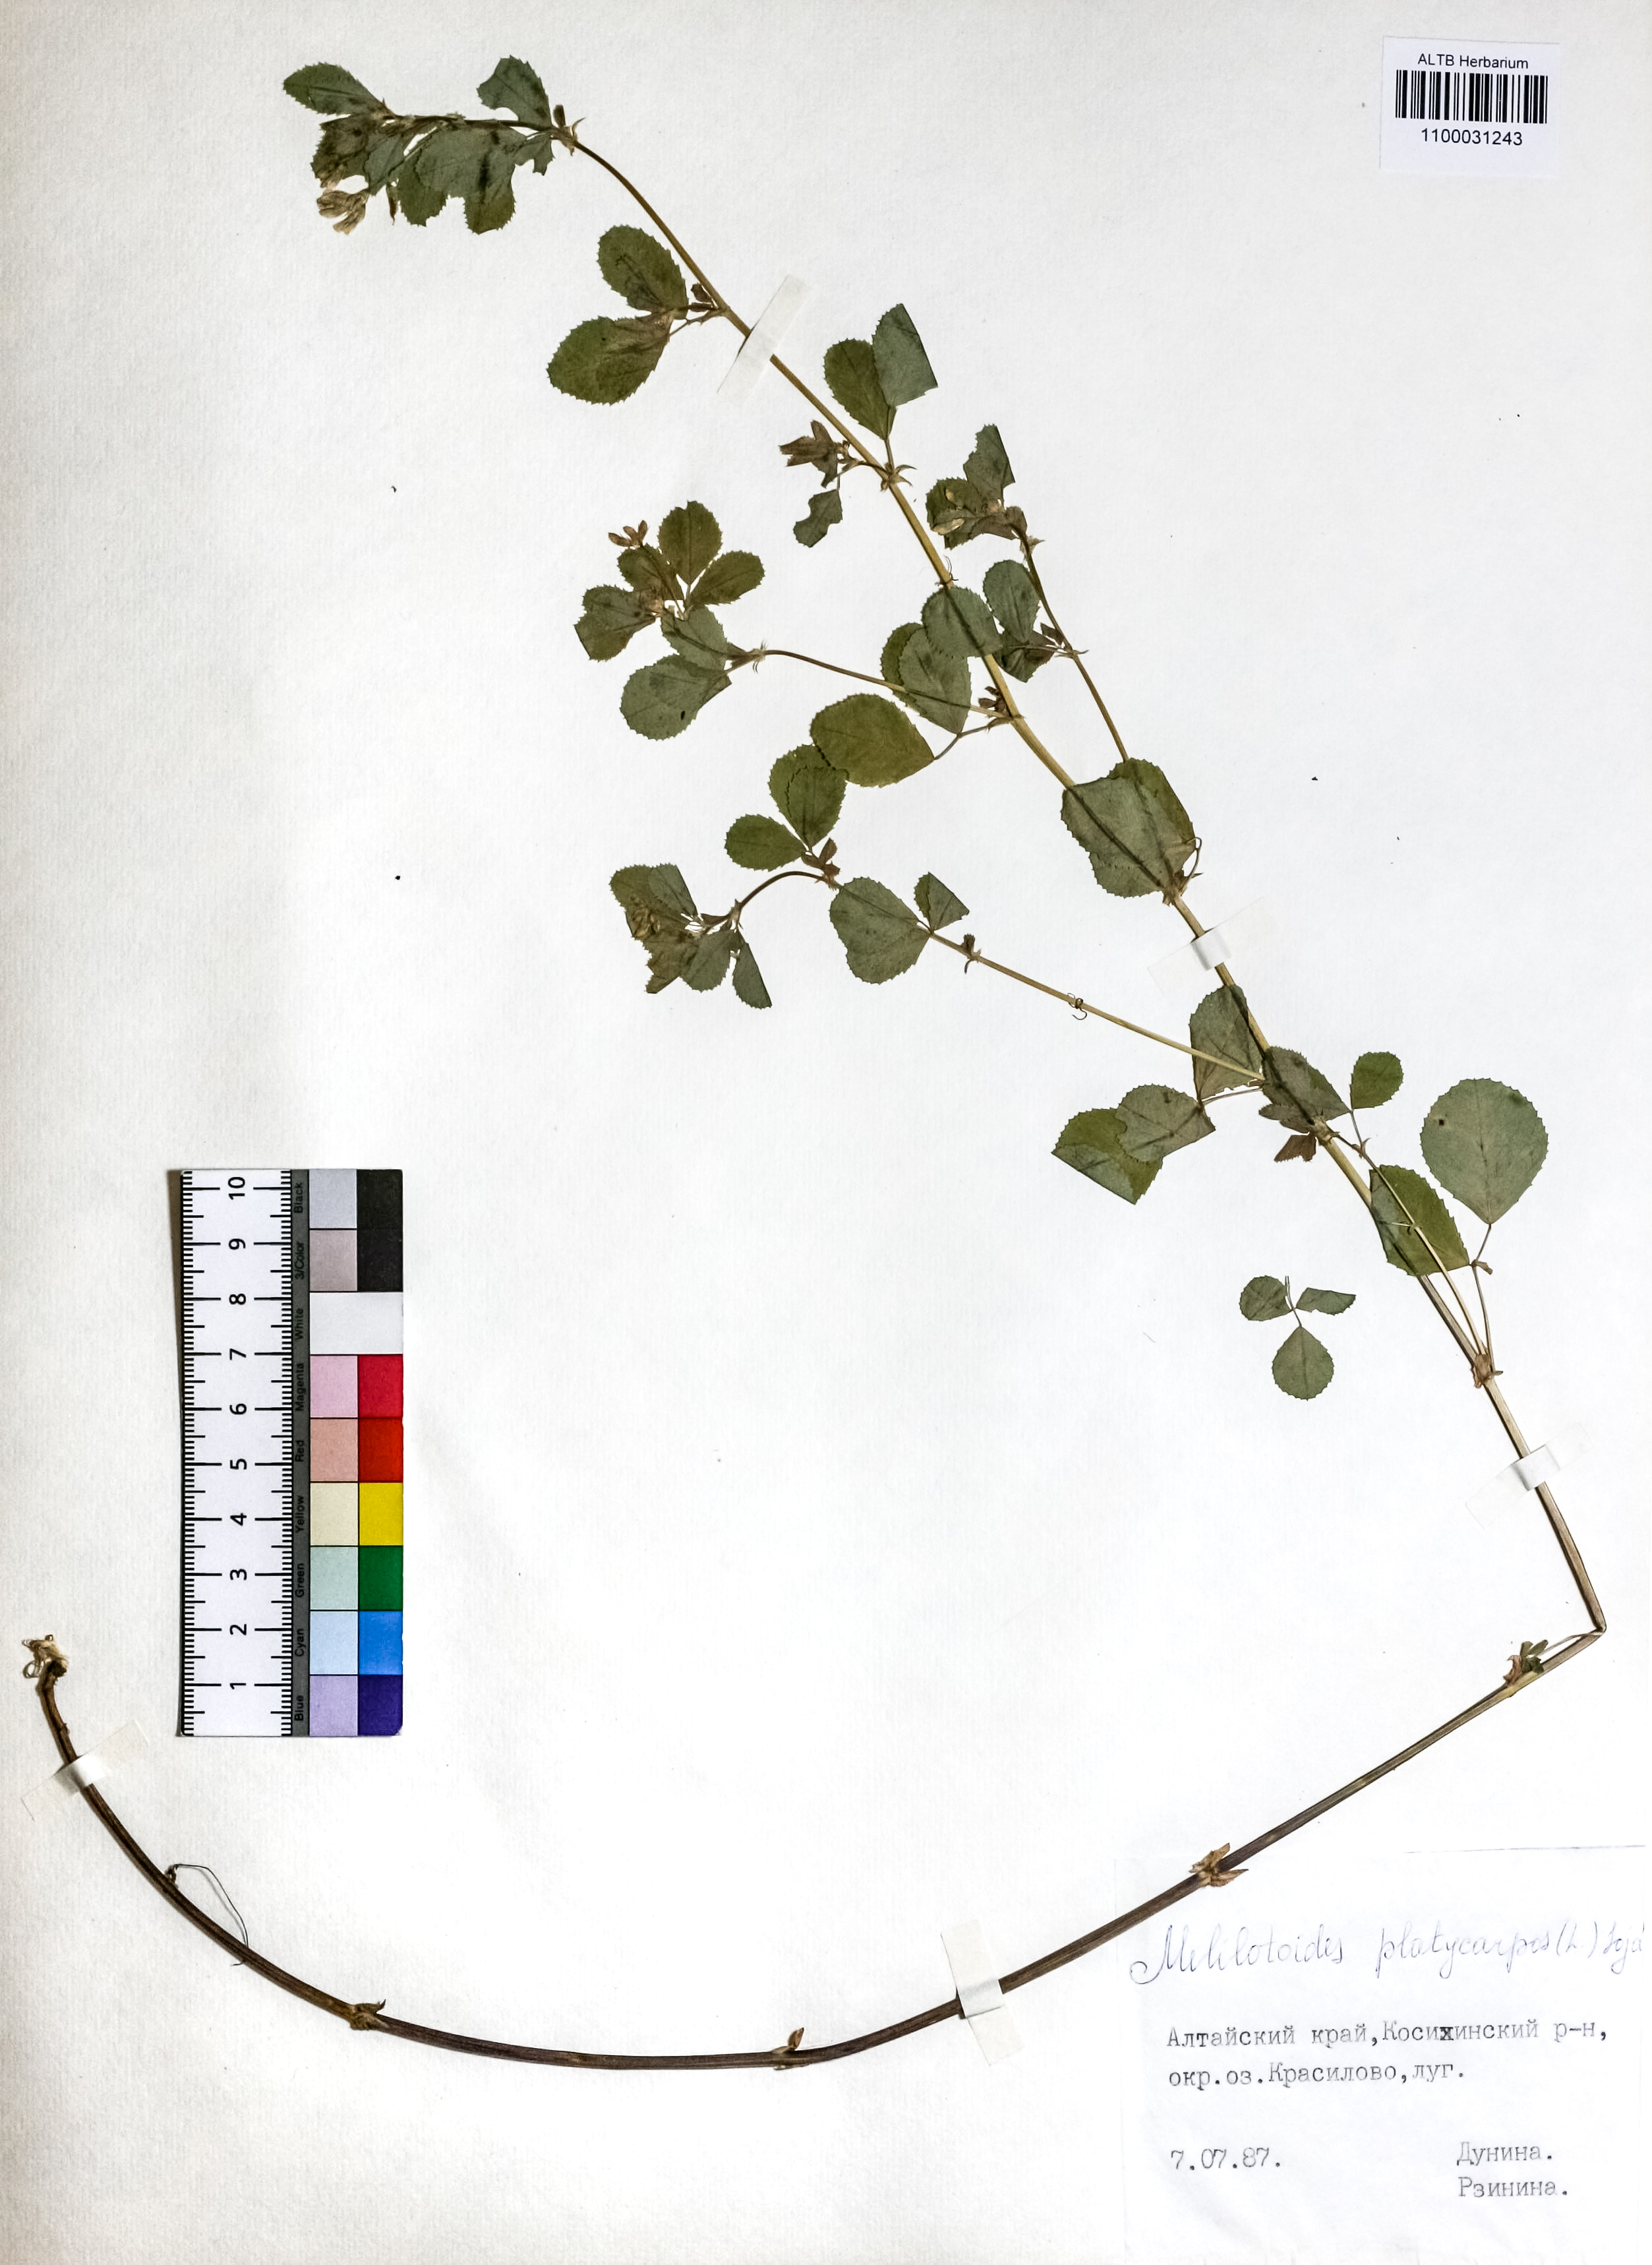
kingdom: Plantae
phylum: Tracheophyta
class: Magnoliopsida
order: Fabales
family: Fabaceae
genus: Medicago
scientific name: Medicago platycarpos
